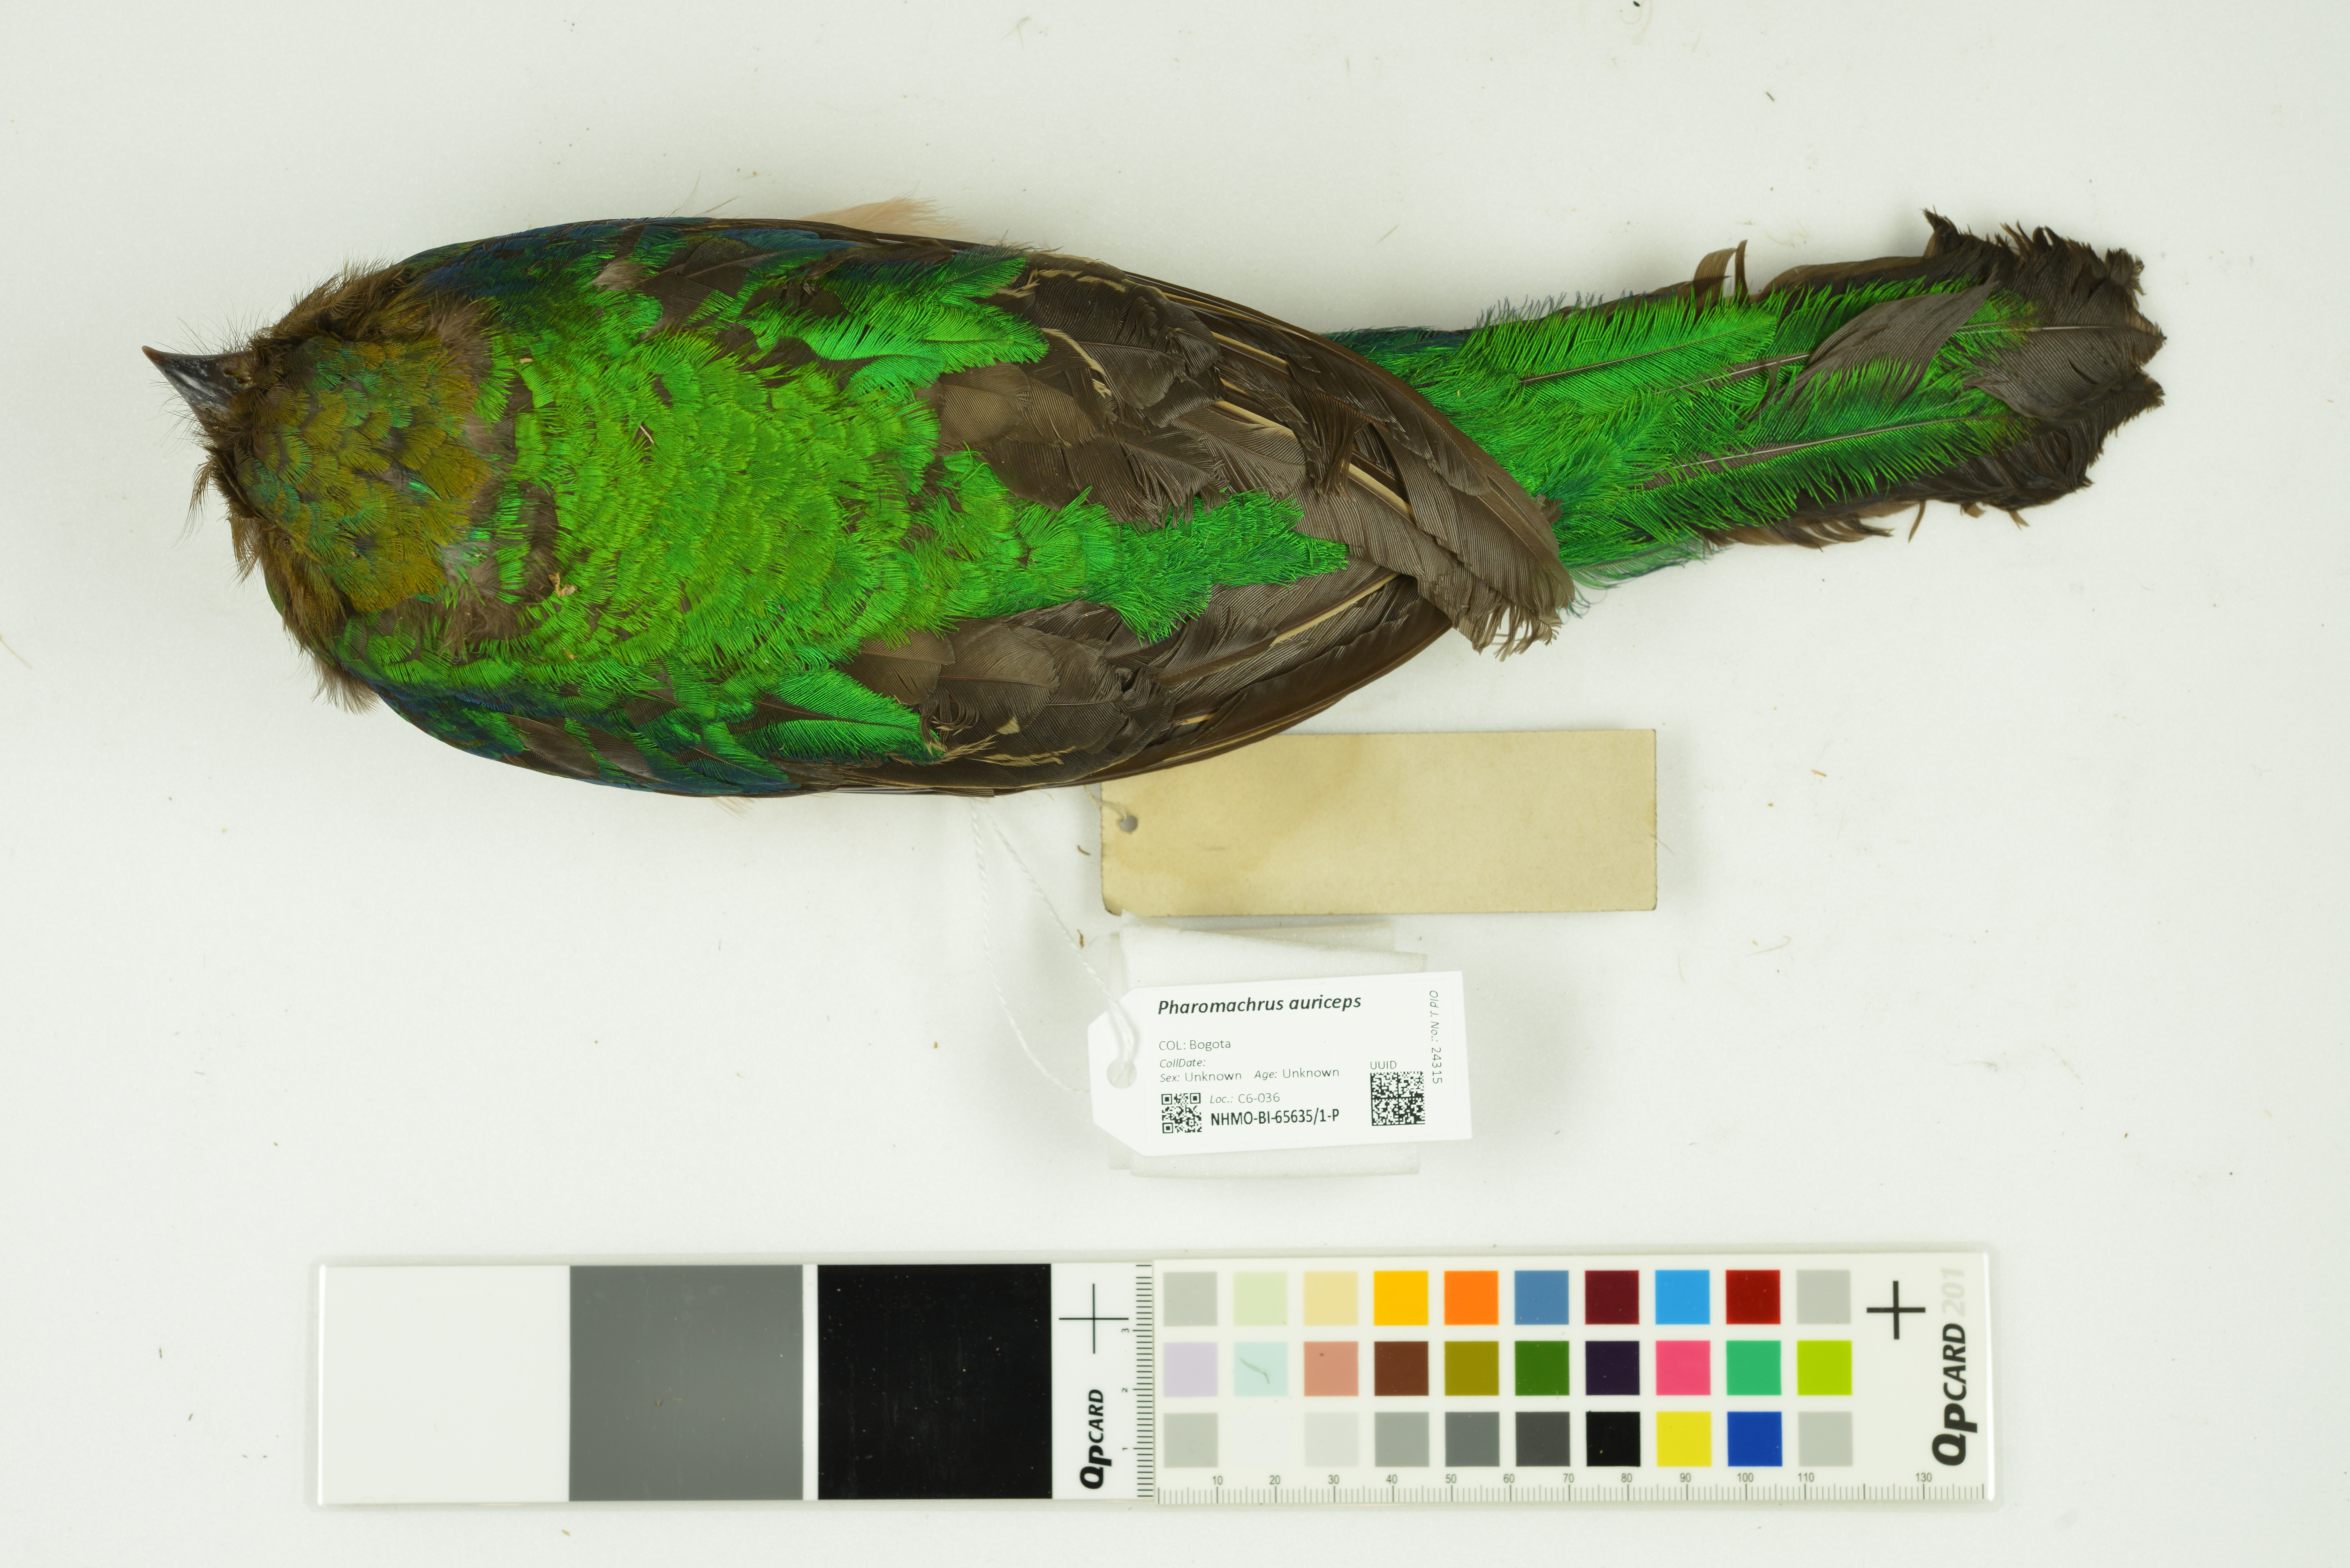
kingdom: Animalia
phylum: Chordata
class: Aves
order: Trogoniformes
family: Trogonidae
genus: Pharomachrus
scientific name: Pharomachrus auriceps
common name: Golden-headed quetzal
